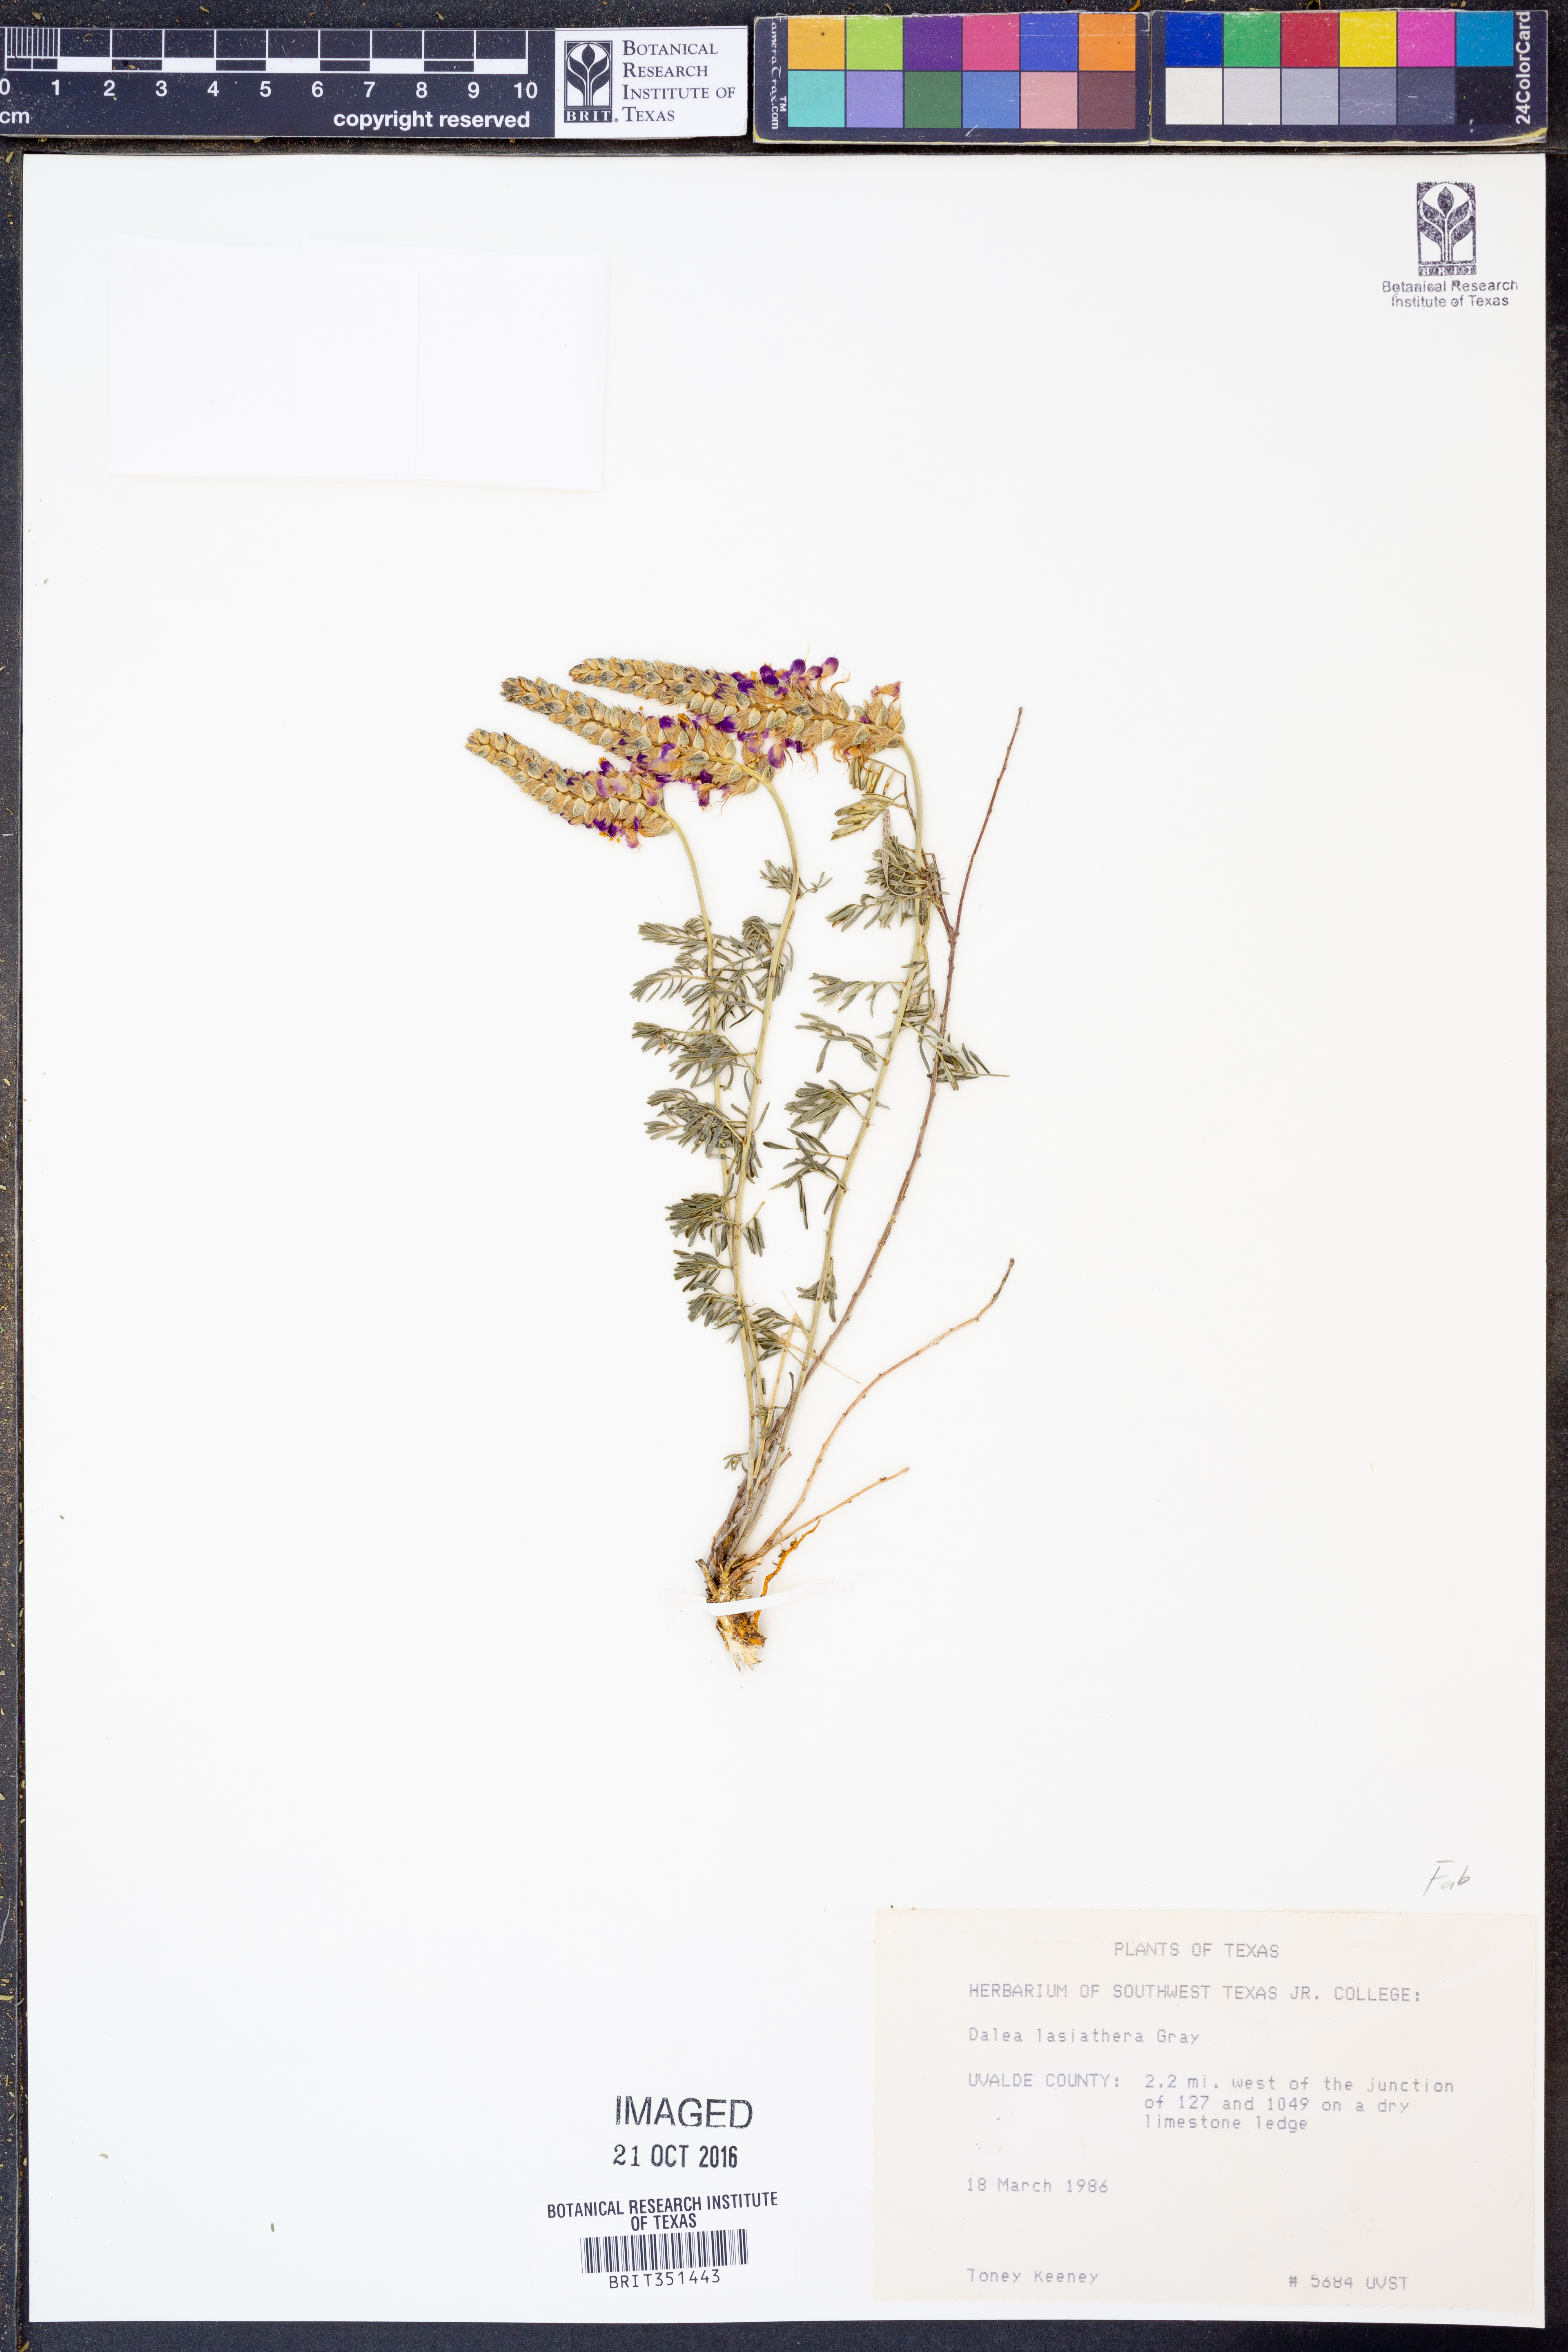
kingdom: Plantae
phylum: Tracheophyta
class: Magnoliopsida
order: Fabales
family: Fabaceae
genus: Dalea
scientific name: Dalea lasiathera
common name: Purple prairie-clover
